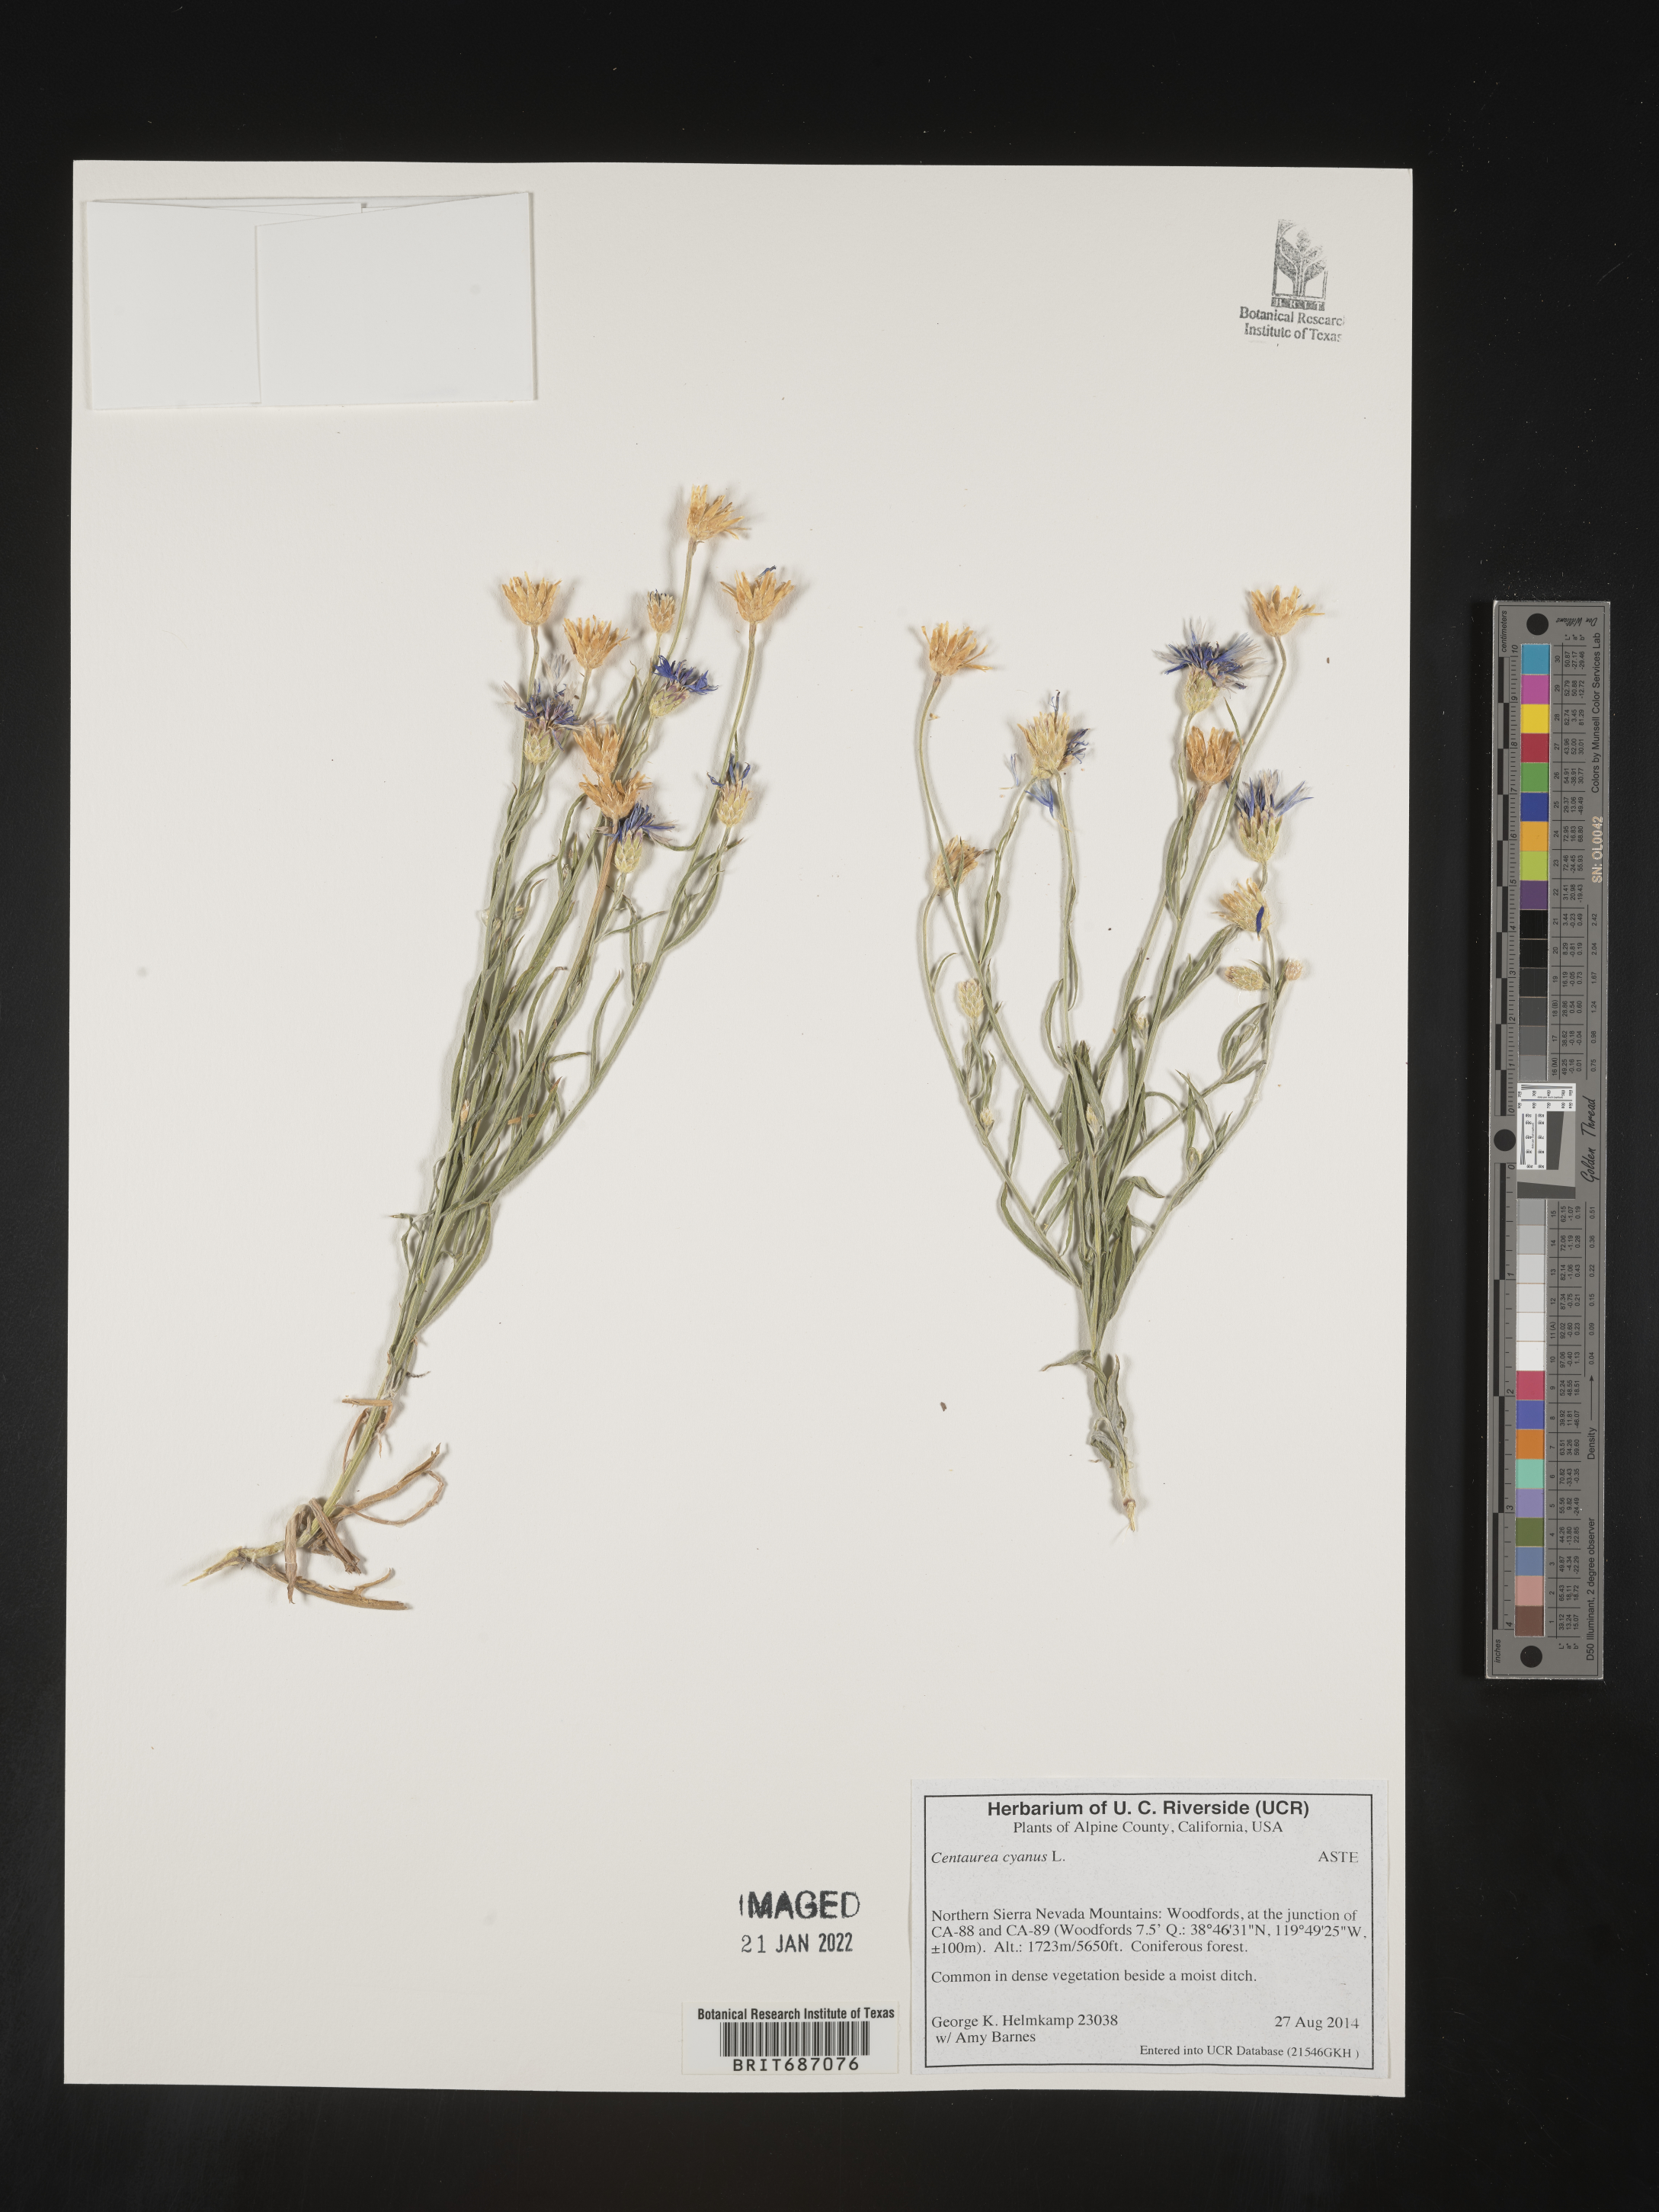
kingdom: Plantae
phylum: Tracheophyta
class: Magnoliopsida
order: Asterales
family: Asteraceae
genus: Centaurea
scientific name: Centaurea cyanus
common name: Cornflower
